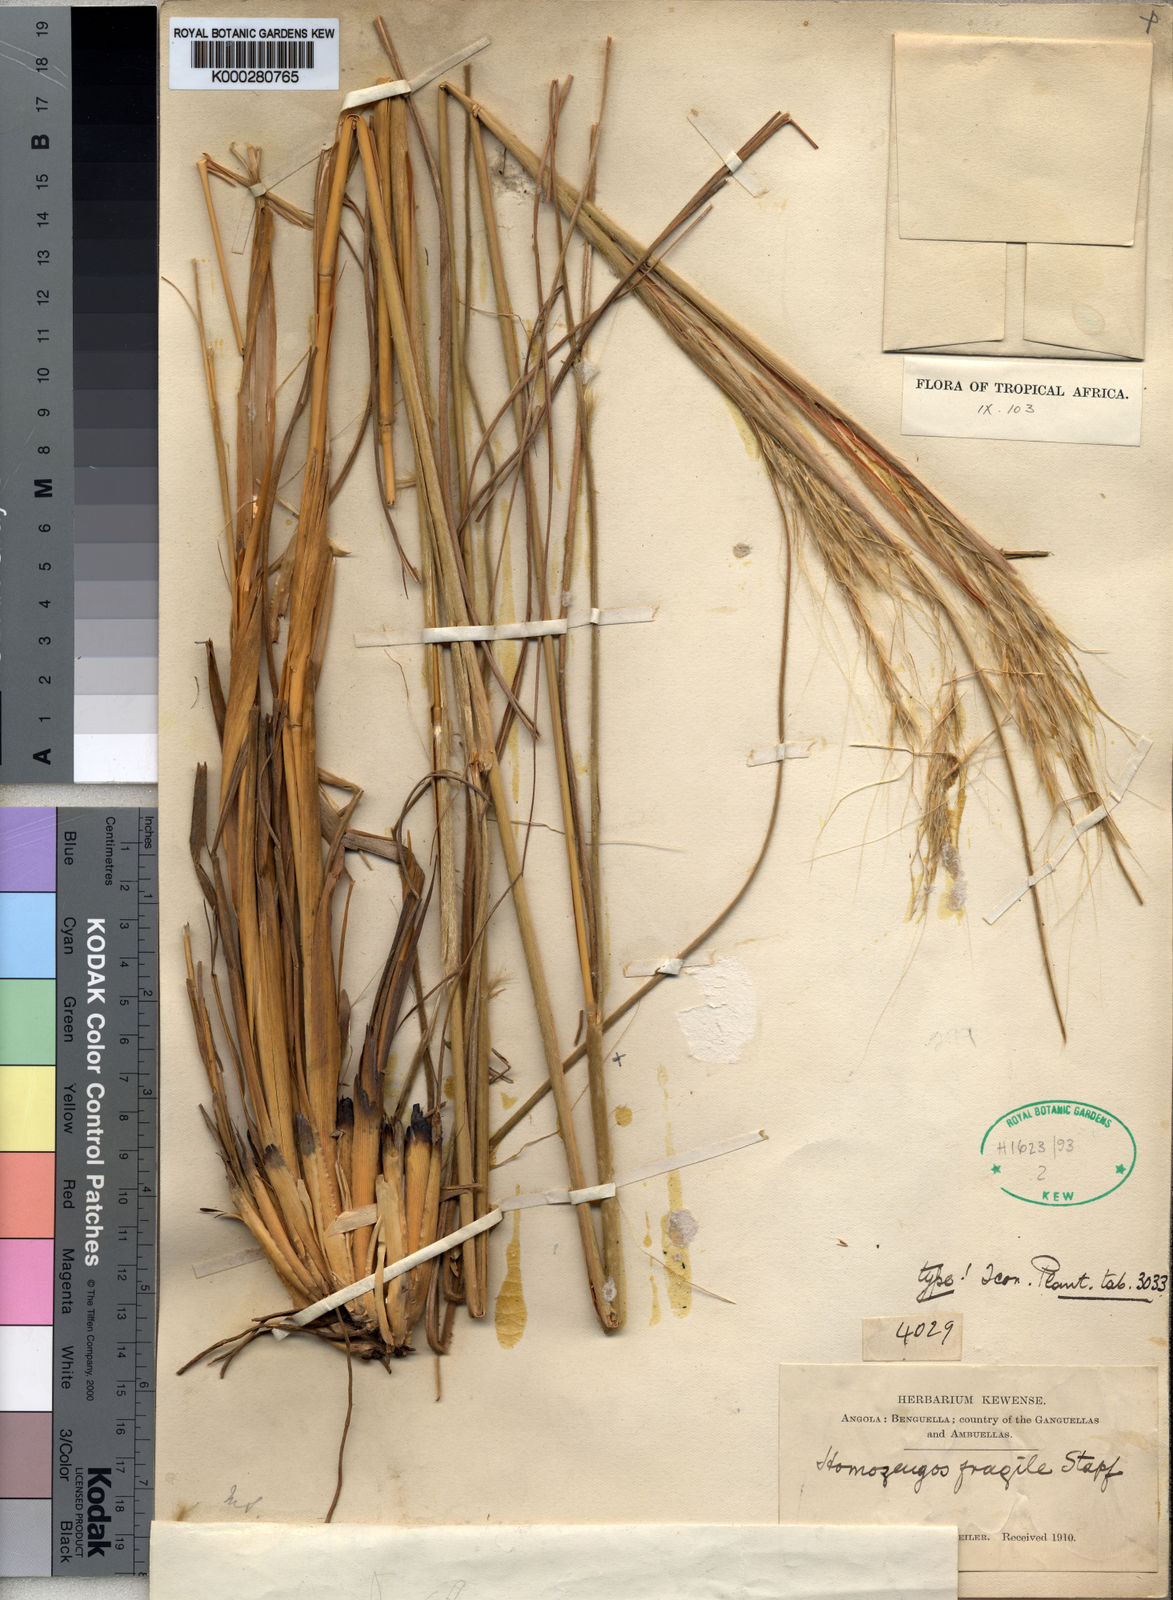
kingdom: Plantae
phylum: Tracheophyta
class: Liliopsida
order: Poales
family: Poaceae
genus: Homozeugos
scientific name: Homozeugos fragile
